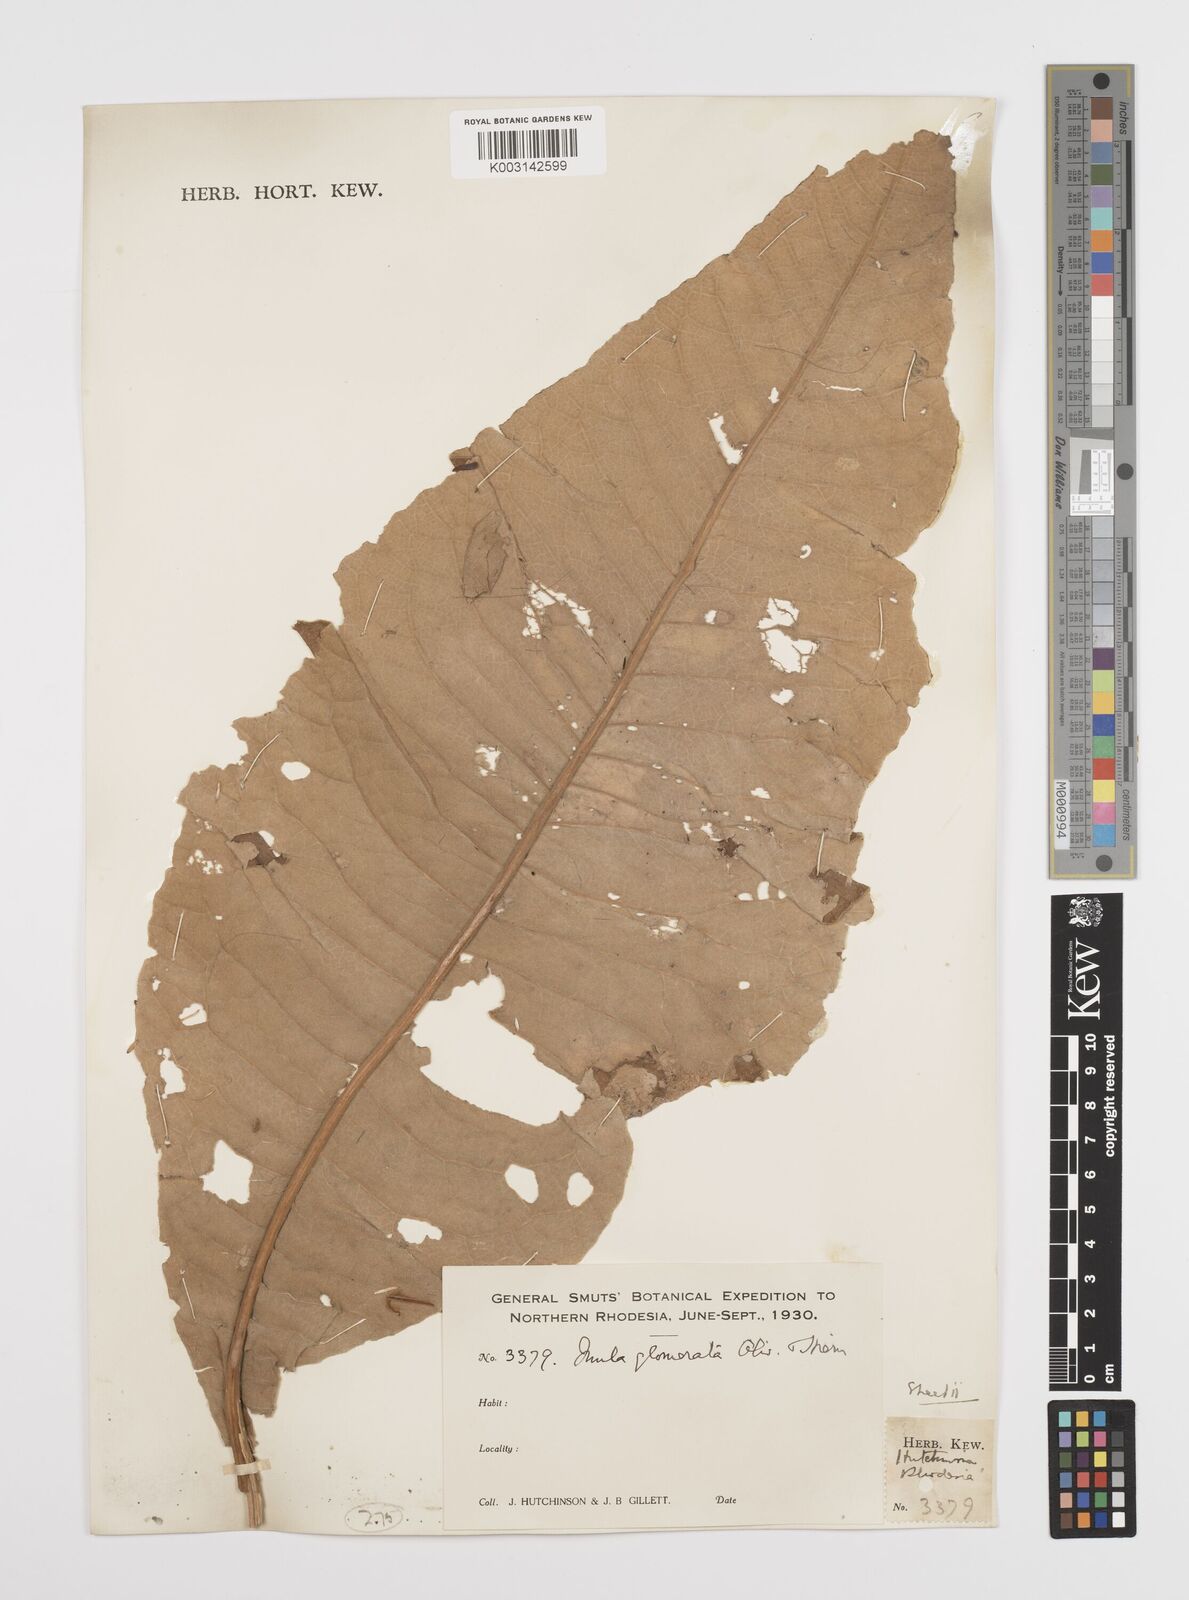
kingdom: Plantae
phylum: Tracheophyta
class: Magnoliopsida
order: Asterales
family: Asteraceae
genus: Inula
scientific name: Inula glomerata
